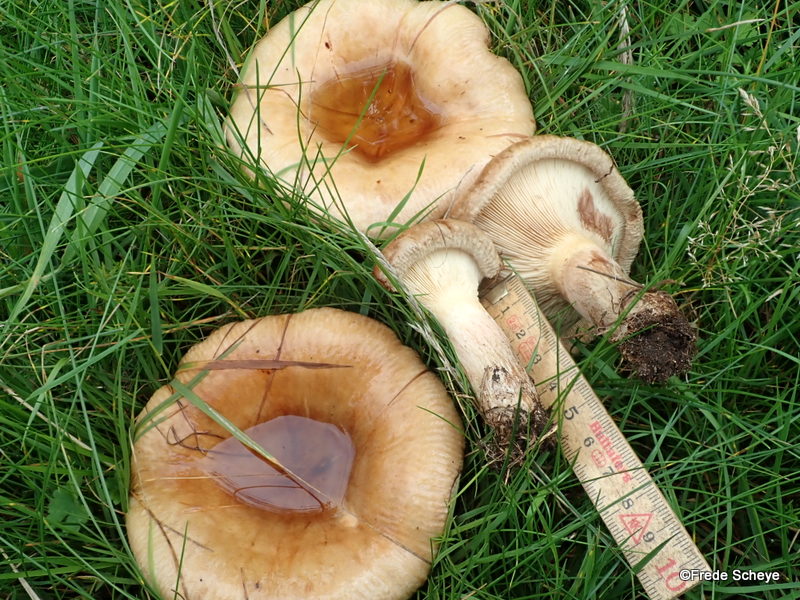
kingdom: Fungi
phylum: Basidiomycota
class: Agaricomycetes
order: Boletales
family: Paxillaceae
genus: Paxillus
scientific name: Paxillus obscurisporus
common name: mahognisporet netbladhat
